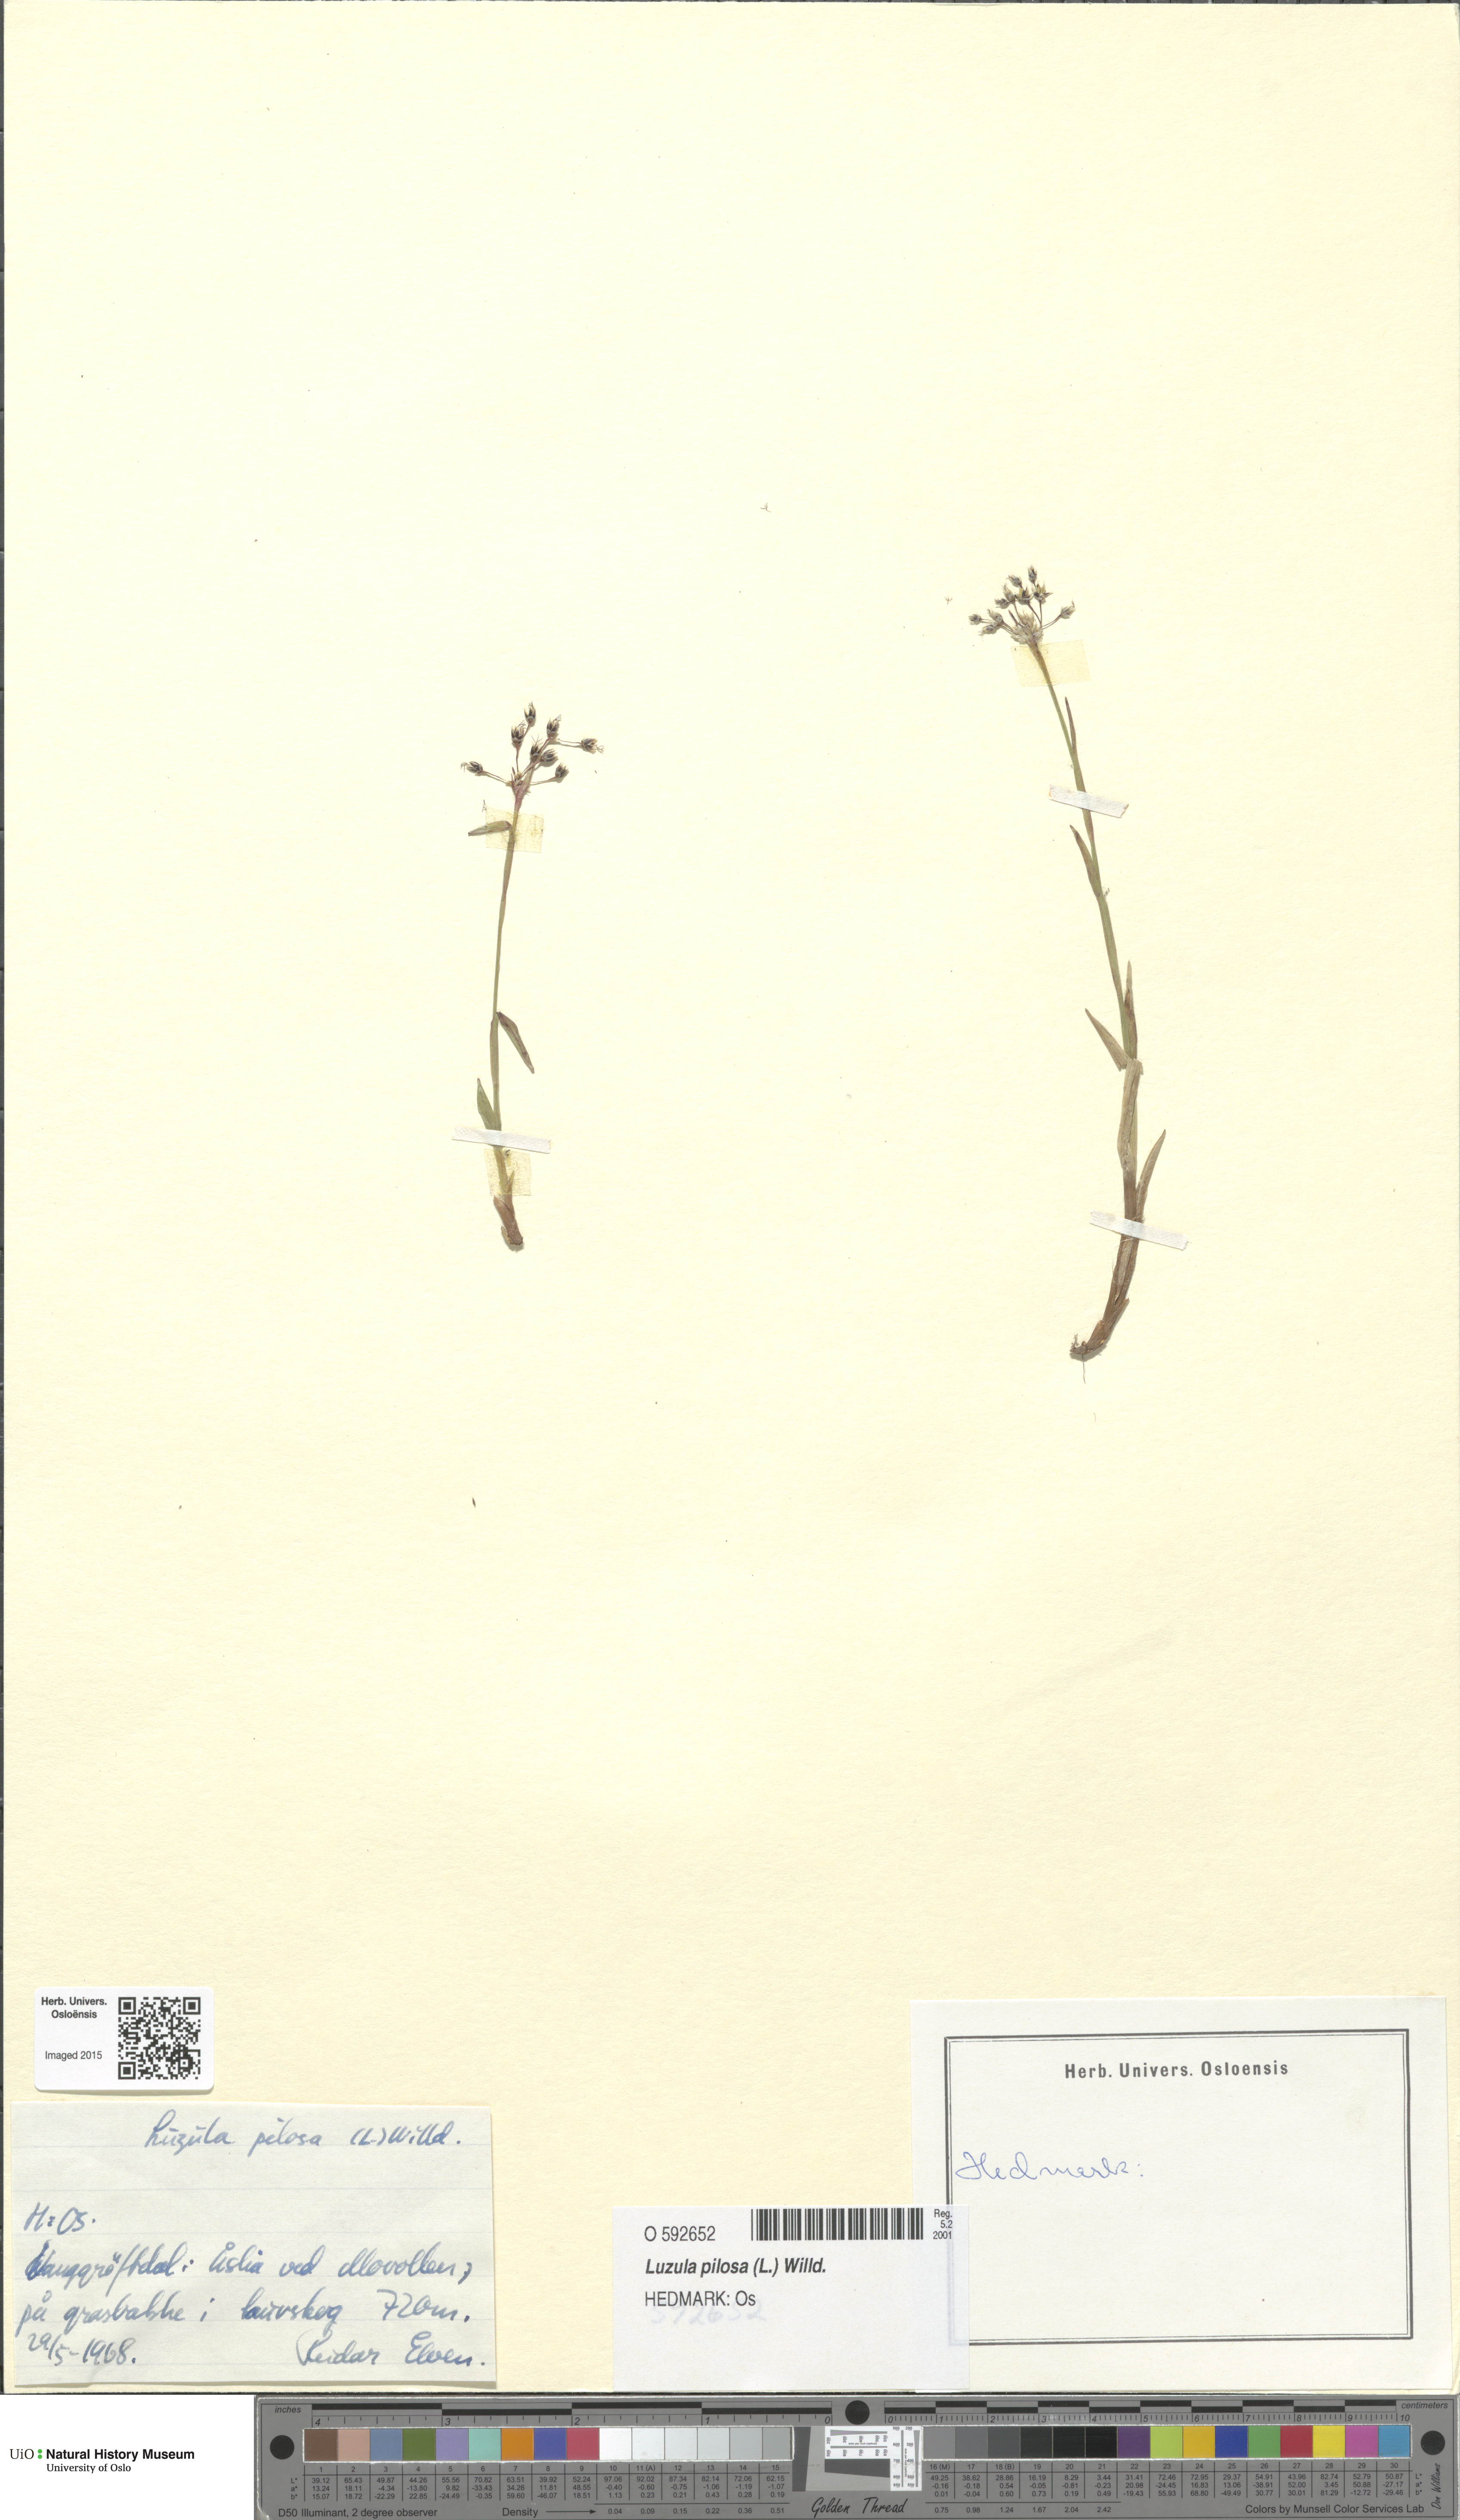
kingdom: Plantae
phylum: Tracheophyta
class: Liliopsida
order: Poales
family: Juncaceae
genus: Luzula
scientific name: Luzula pilosa
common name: Hairy wood-rush
